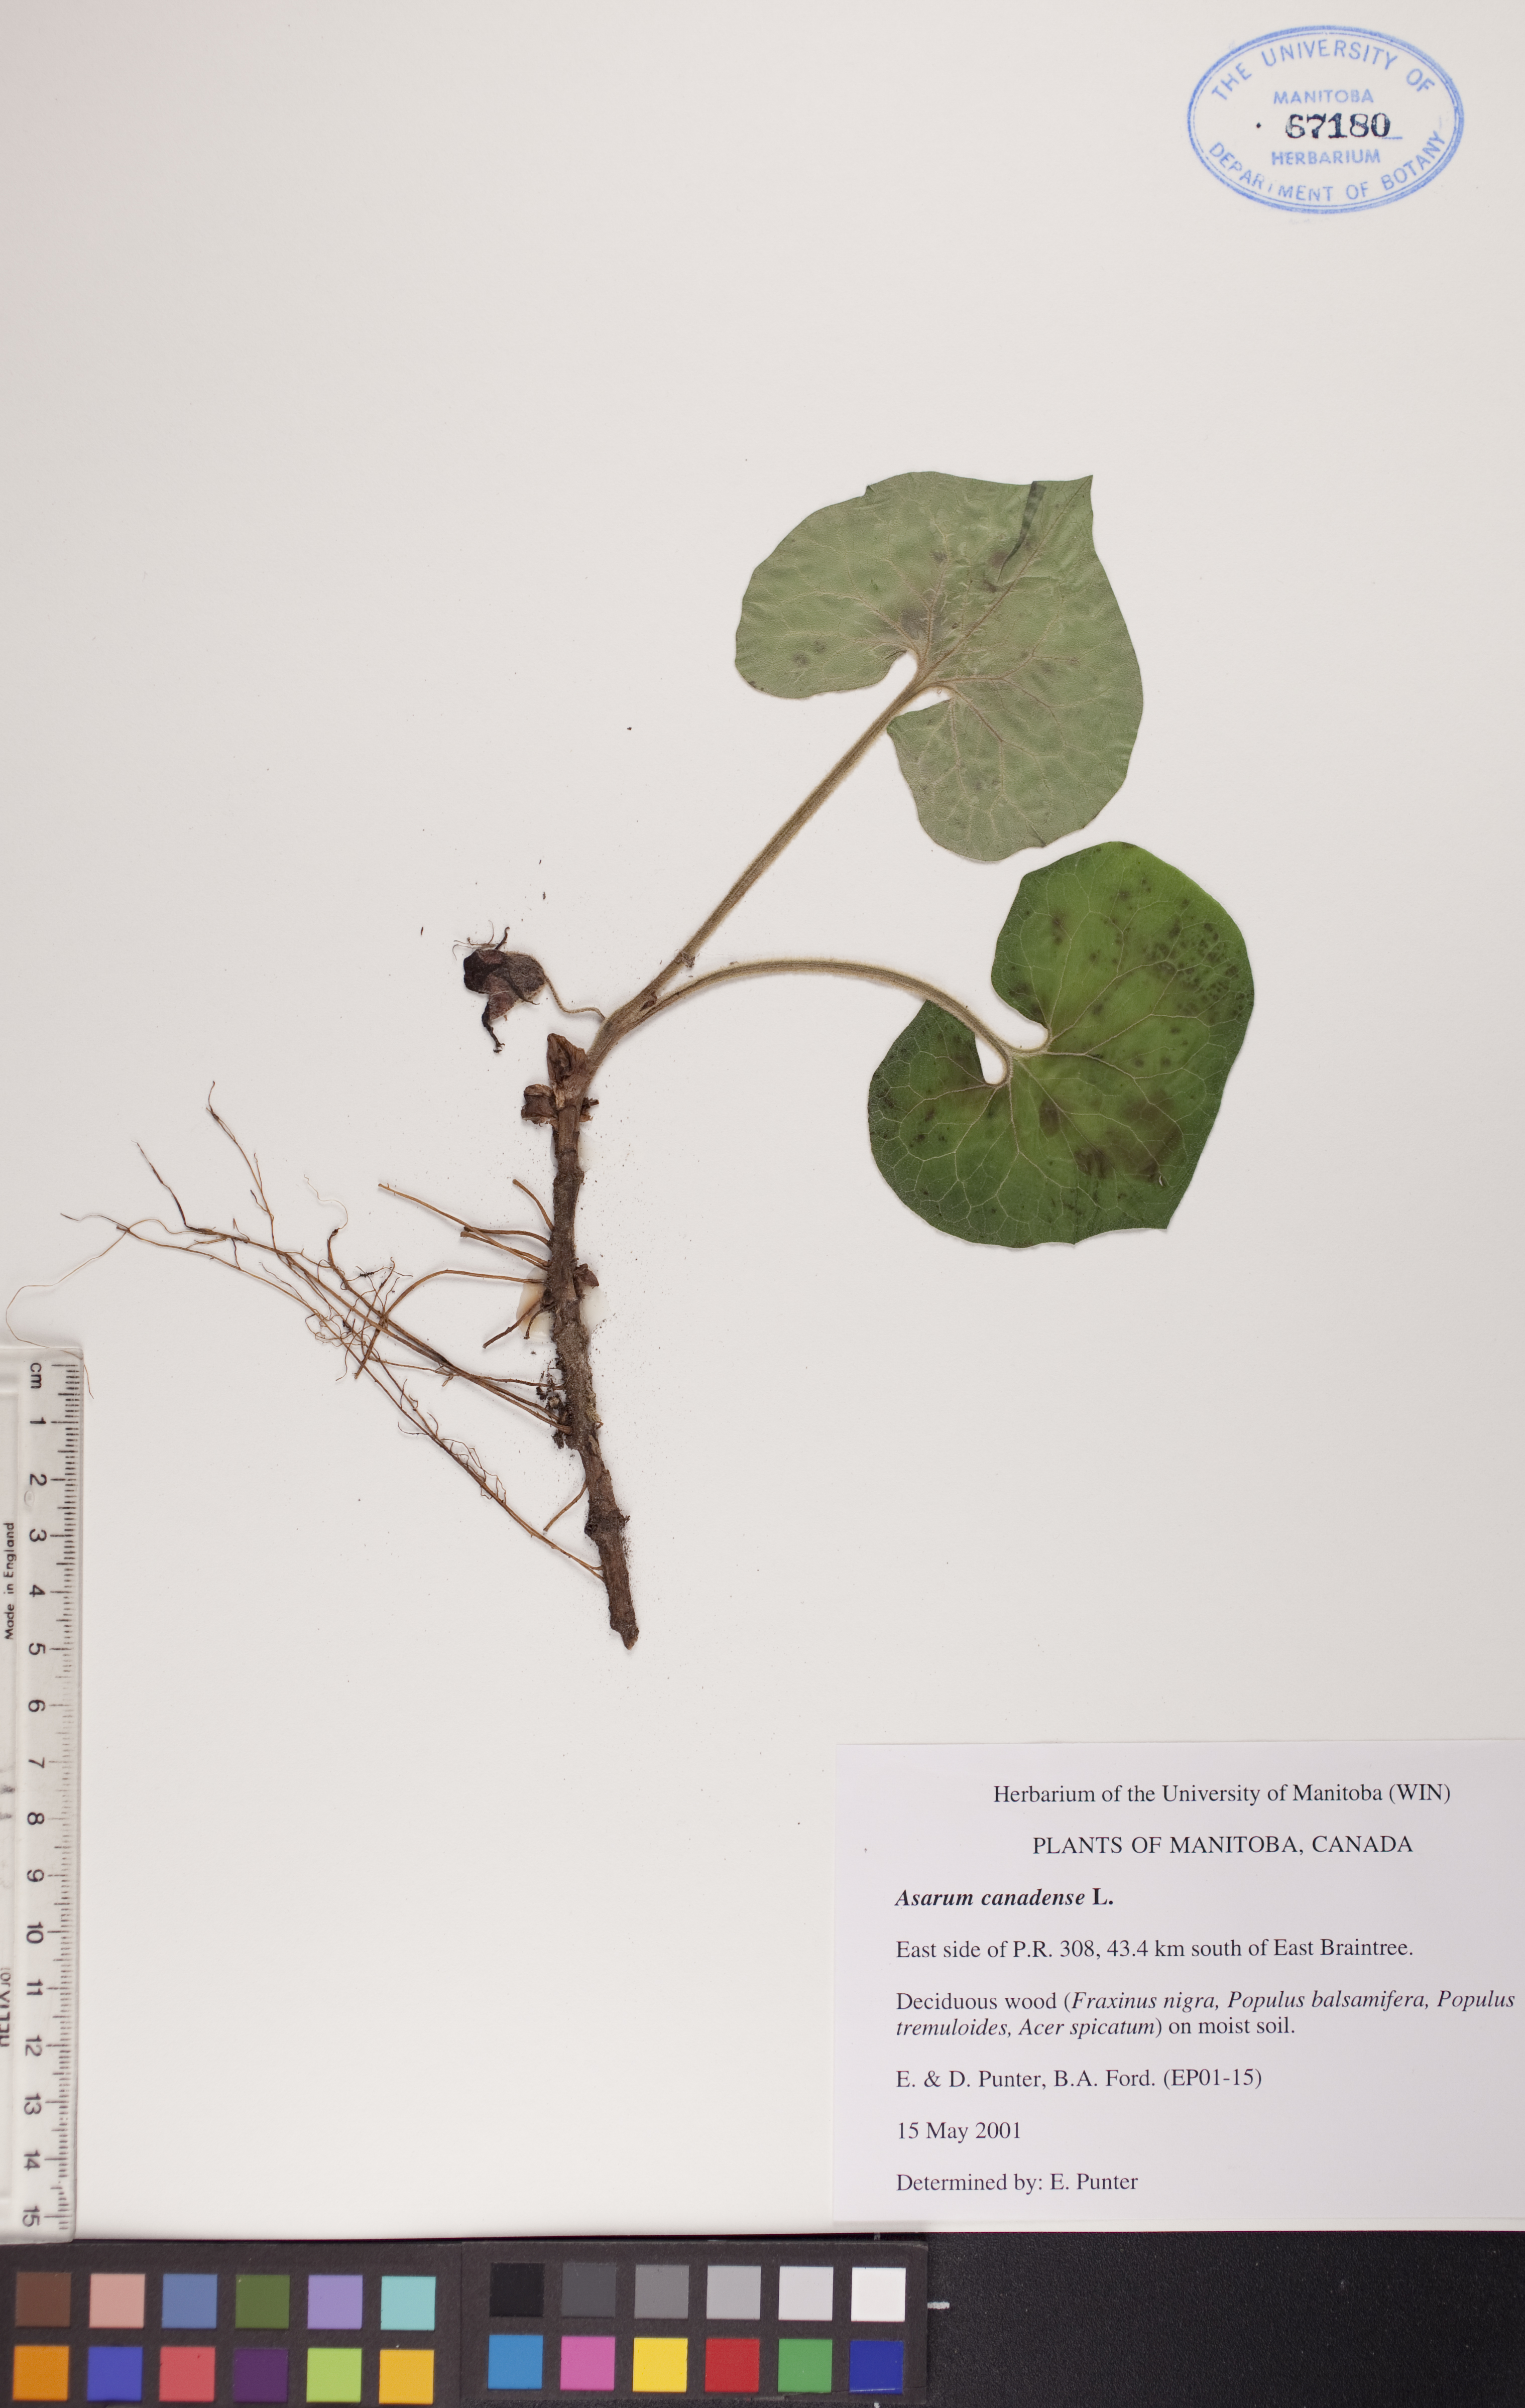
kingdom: Plantae
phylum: Tracheophyta
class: Magnoliopsida
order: Piperales
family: Aristolochiaceae
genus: Asarum
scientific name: Asarum canadense
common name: Wild ginger
